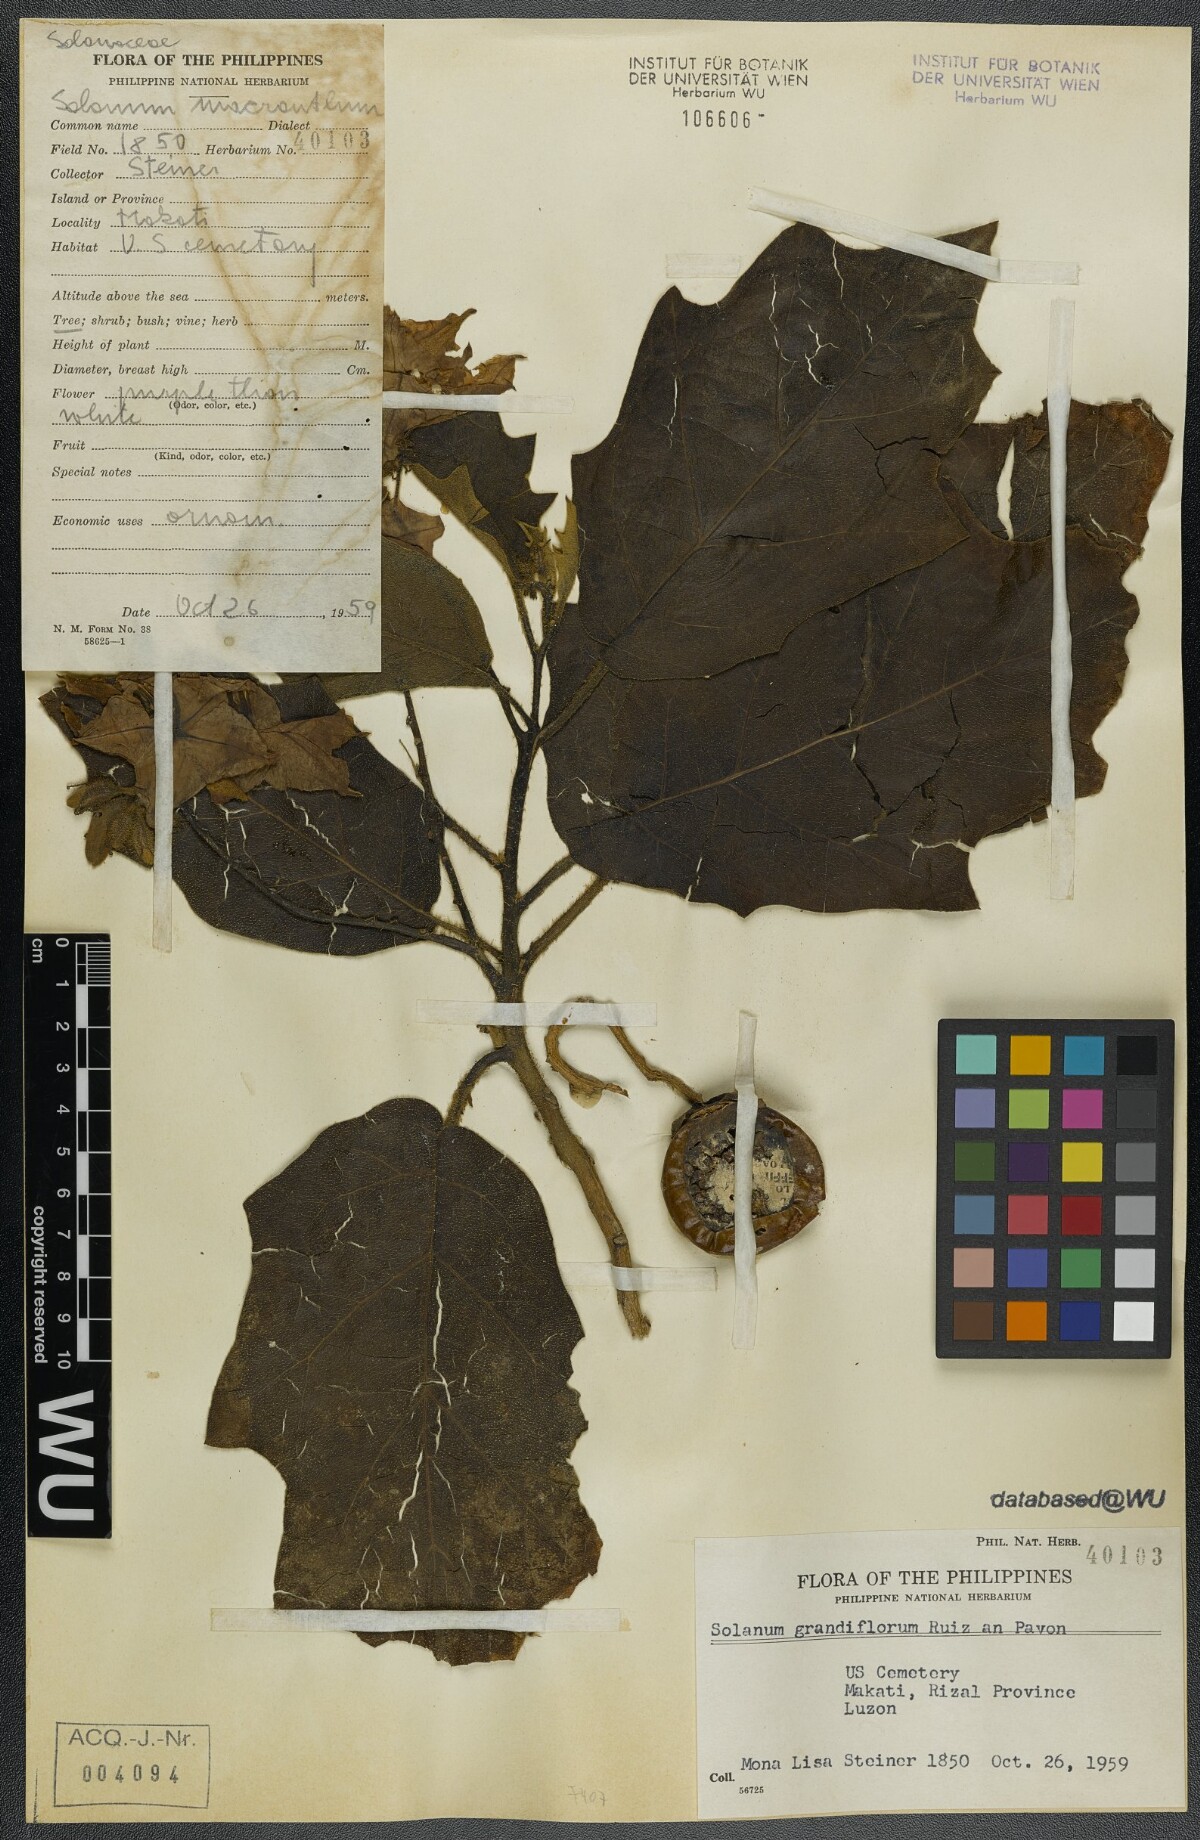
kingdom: Plantae
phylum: Tracheophyta
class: Magnoliopsida
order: Solanales
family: Solanaceae
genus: Solanum
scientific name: Solanum grandiflorum
